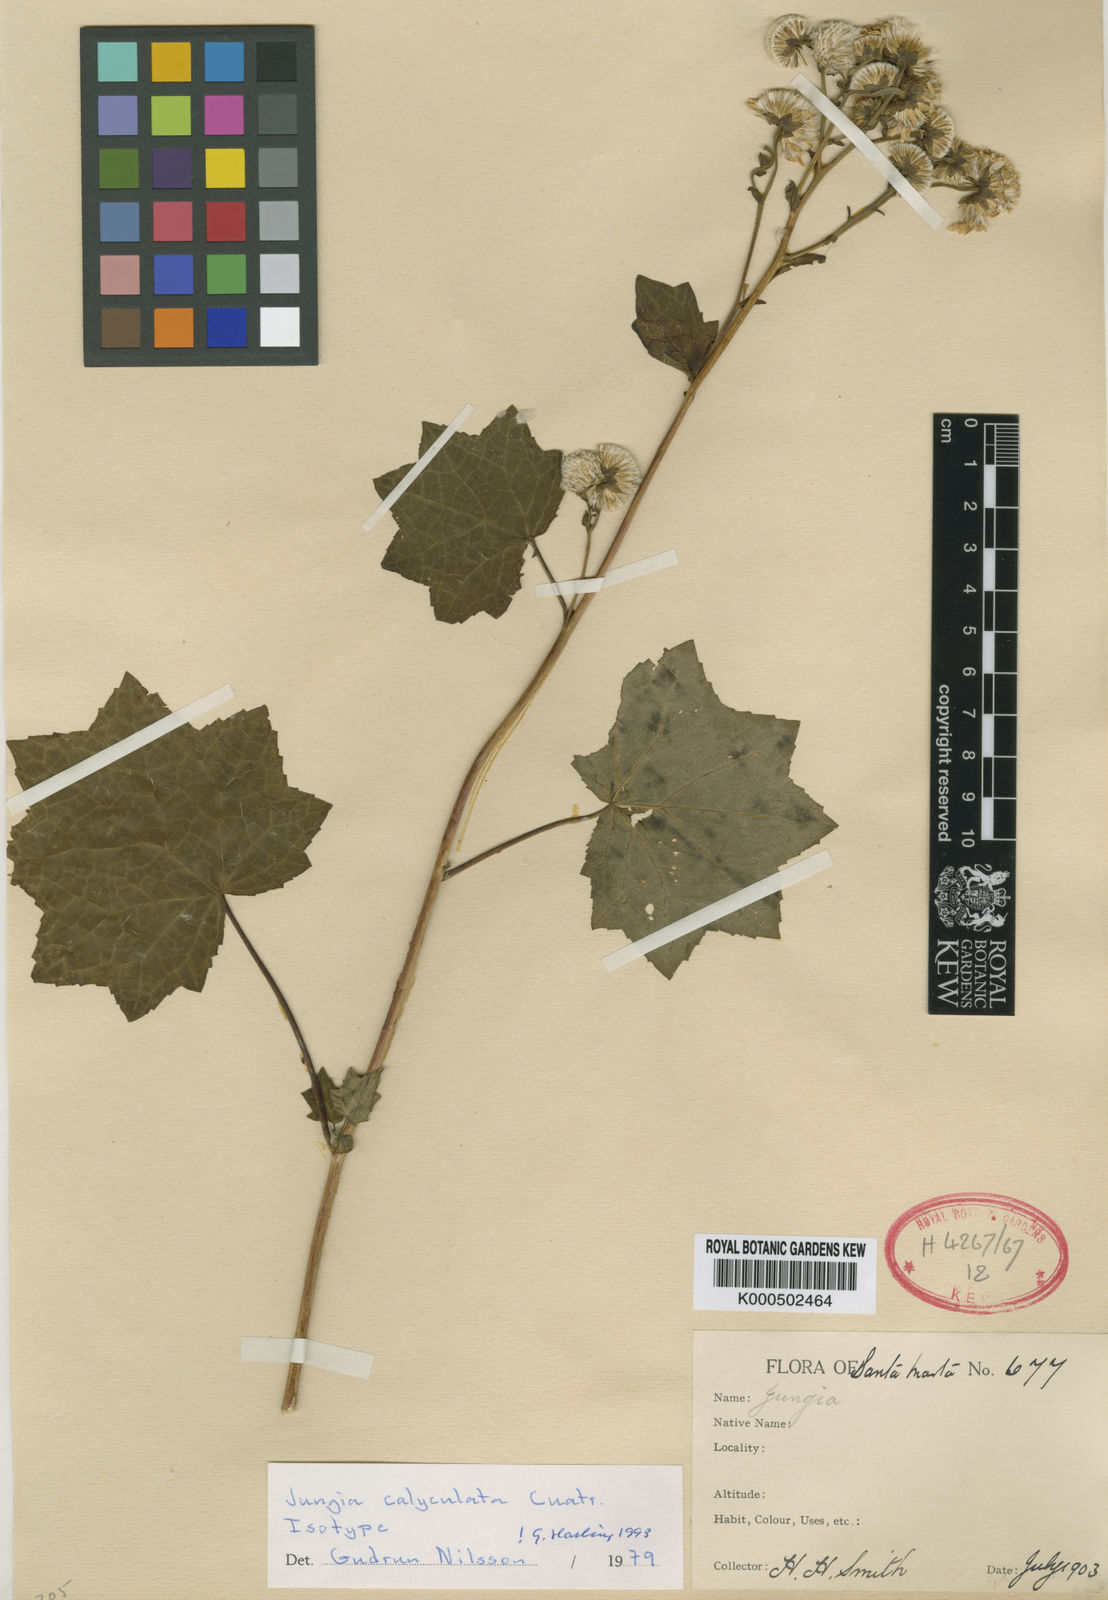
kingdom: Plantae
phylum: Tracheophyta
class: Magnoliopsida
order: Asterales
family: Asteraceae
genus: Jungia
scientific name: Jungia calyculata
